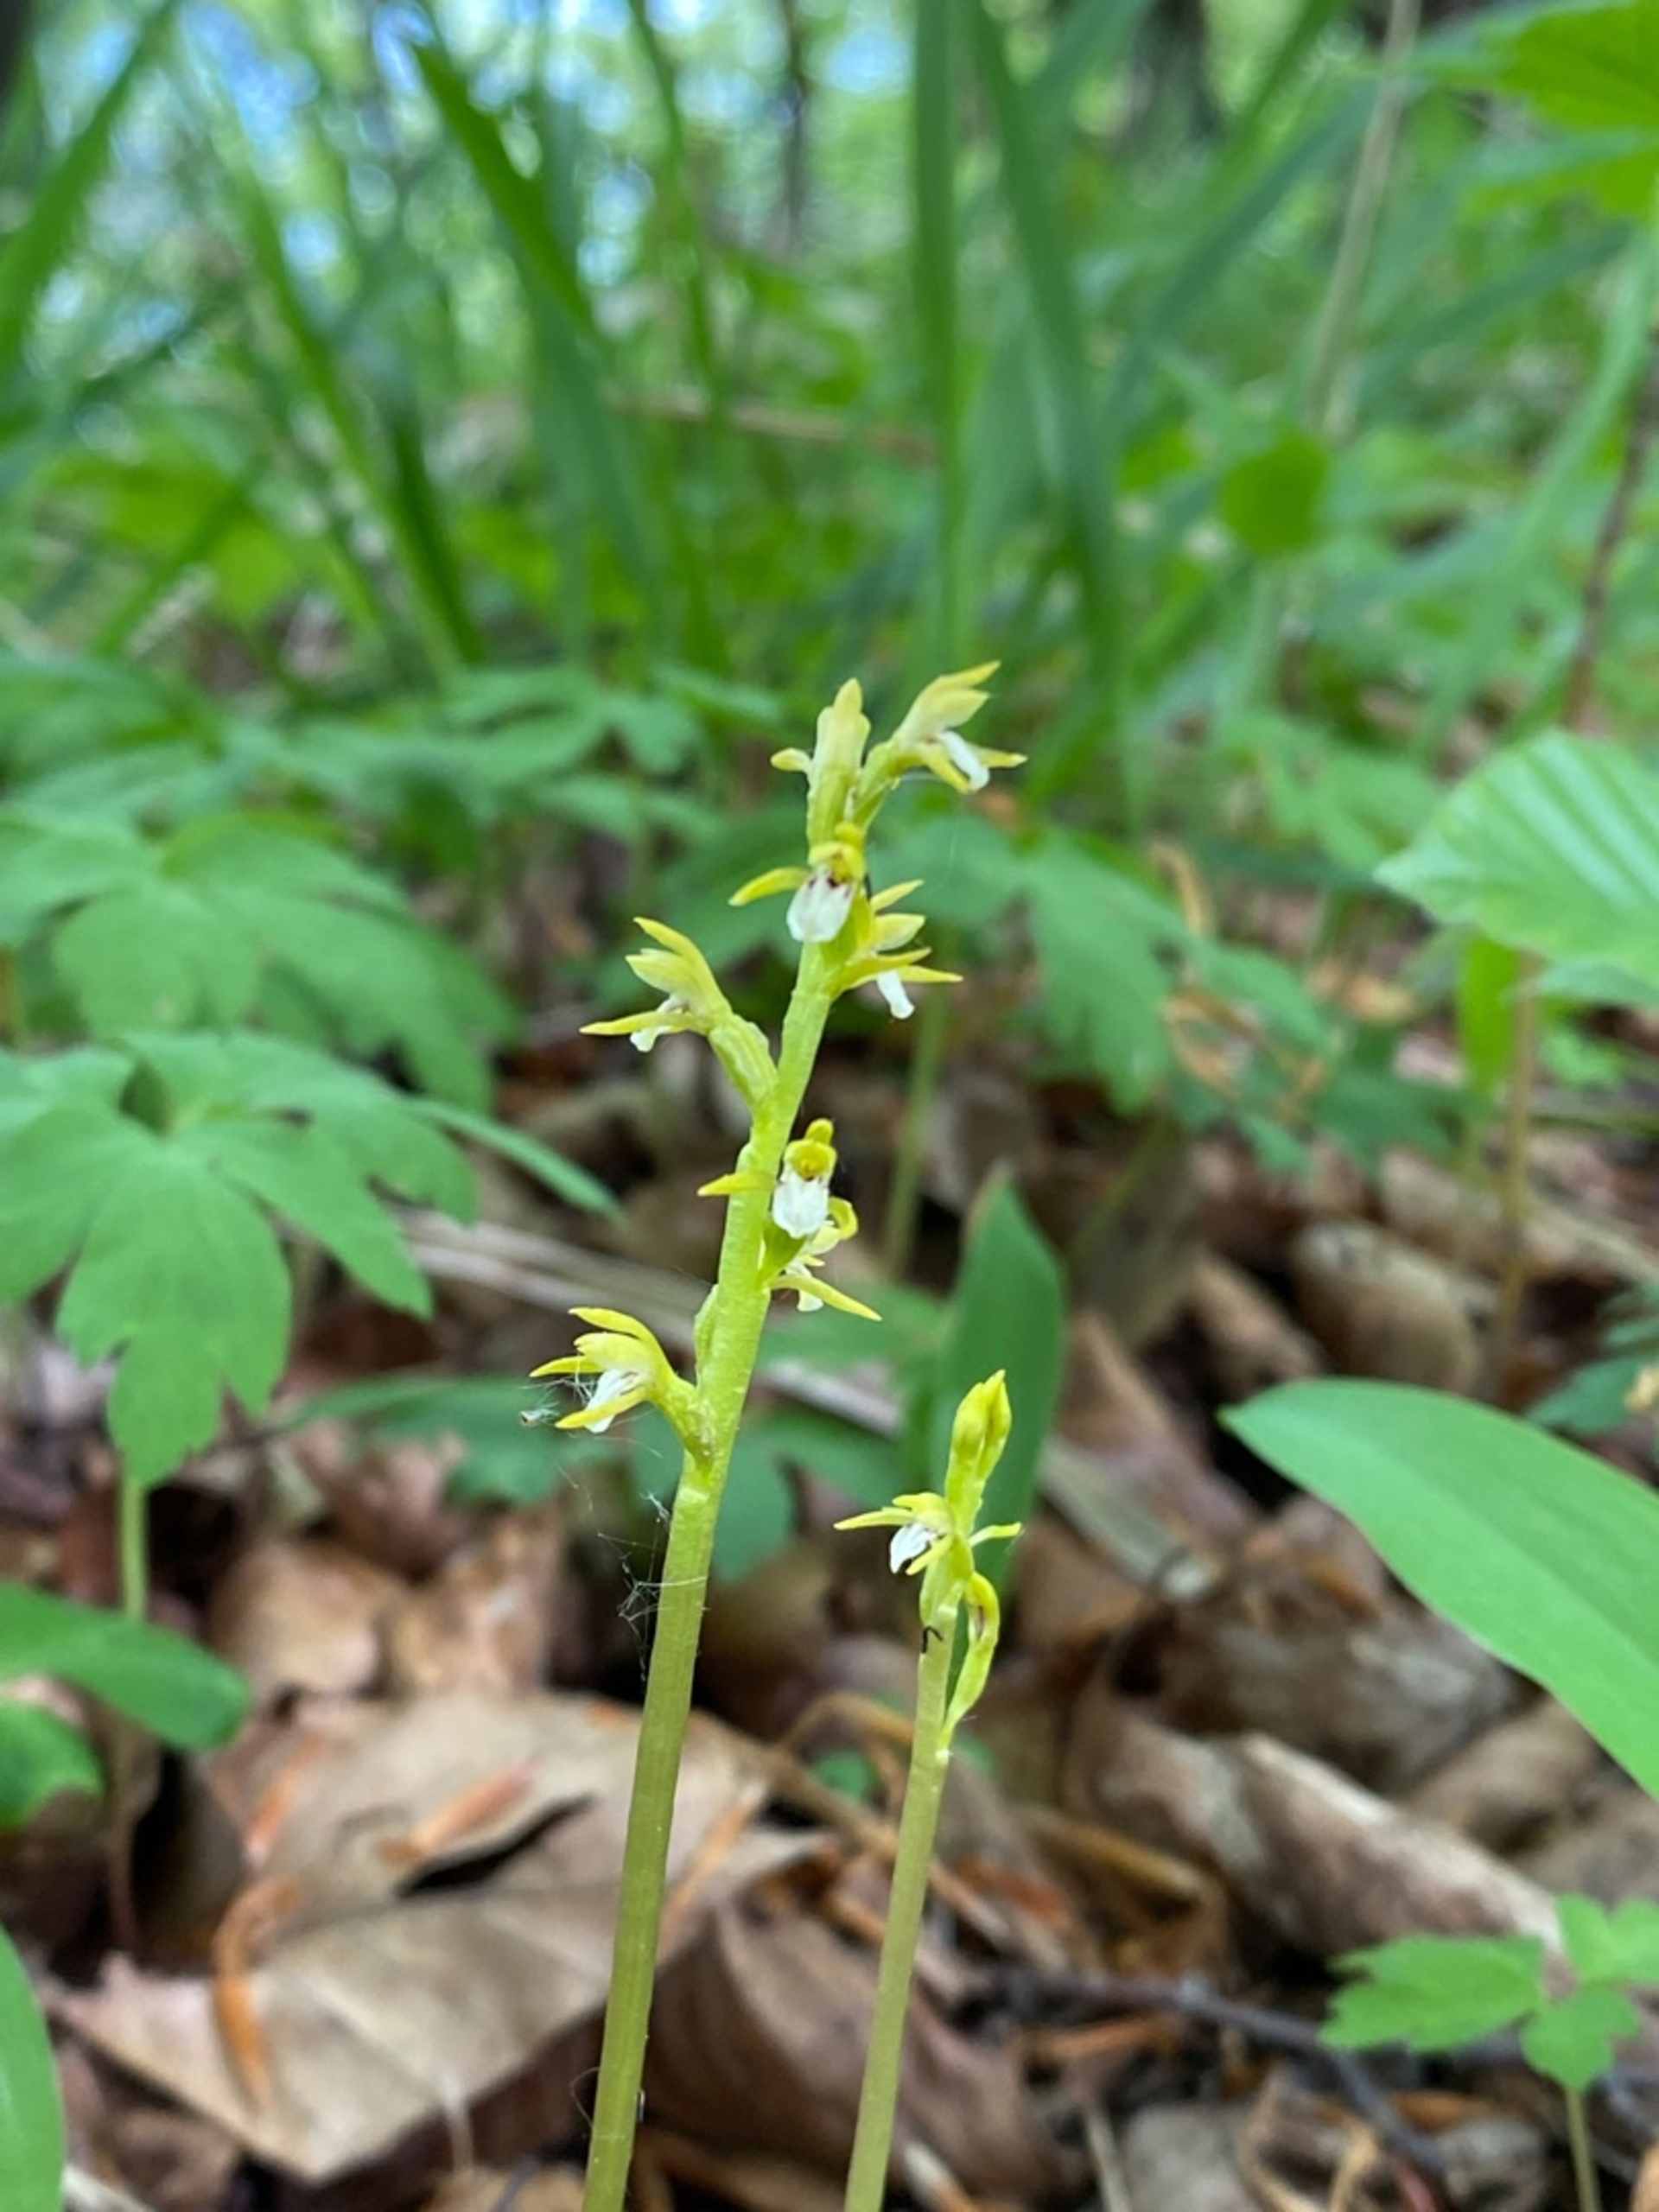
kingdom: Plantae
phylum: Tracheophyta
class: Liliopsida
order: Asparagales
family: Orchidaceae
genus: Corallorhiza
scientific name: Corallorhiza trifida
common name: Koralrod
